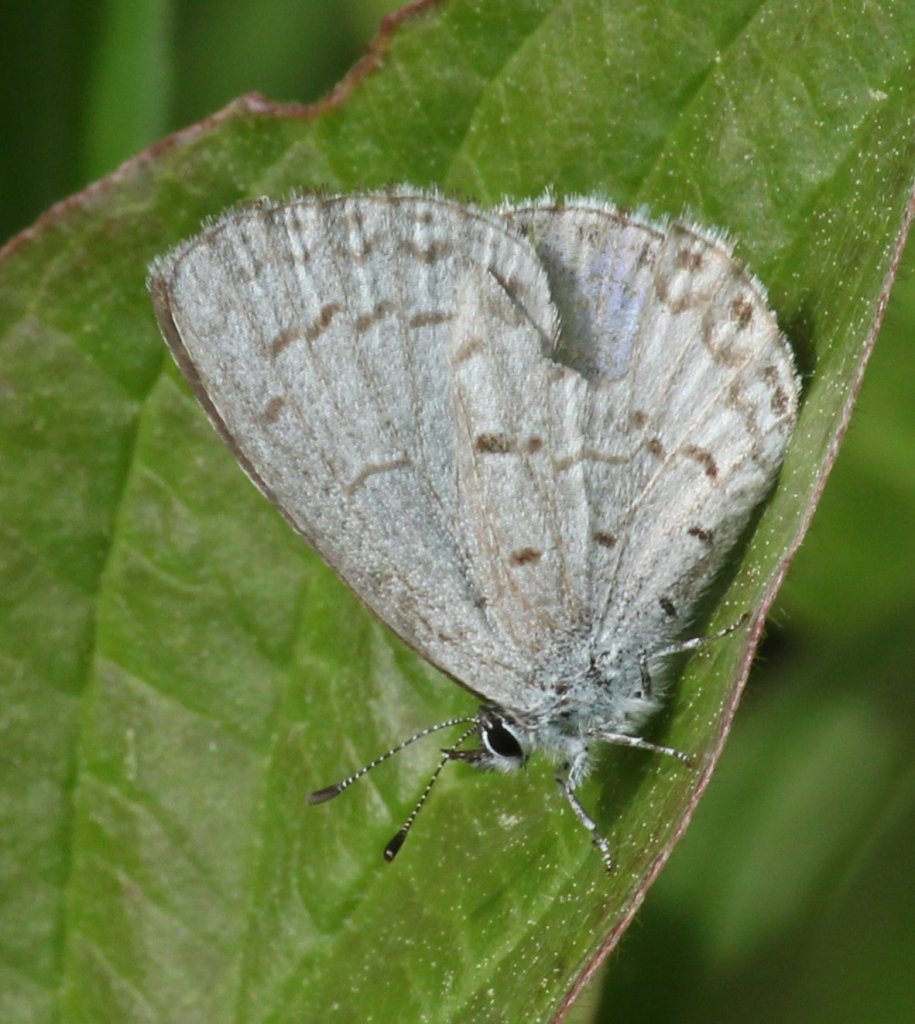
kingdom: Animalia
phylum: Arthropoda
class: Insecta
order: Lepidoptera
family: Lycaenidae
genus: Celastrina
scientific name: Celastrina lucia
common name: Northern Spring Azure
